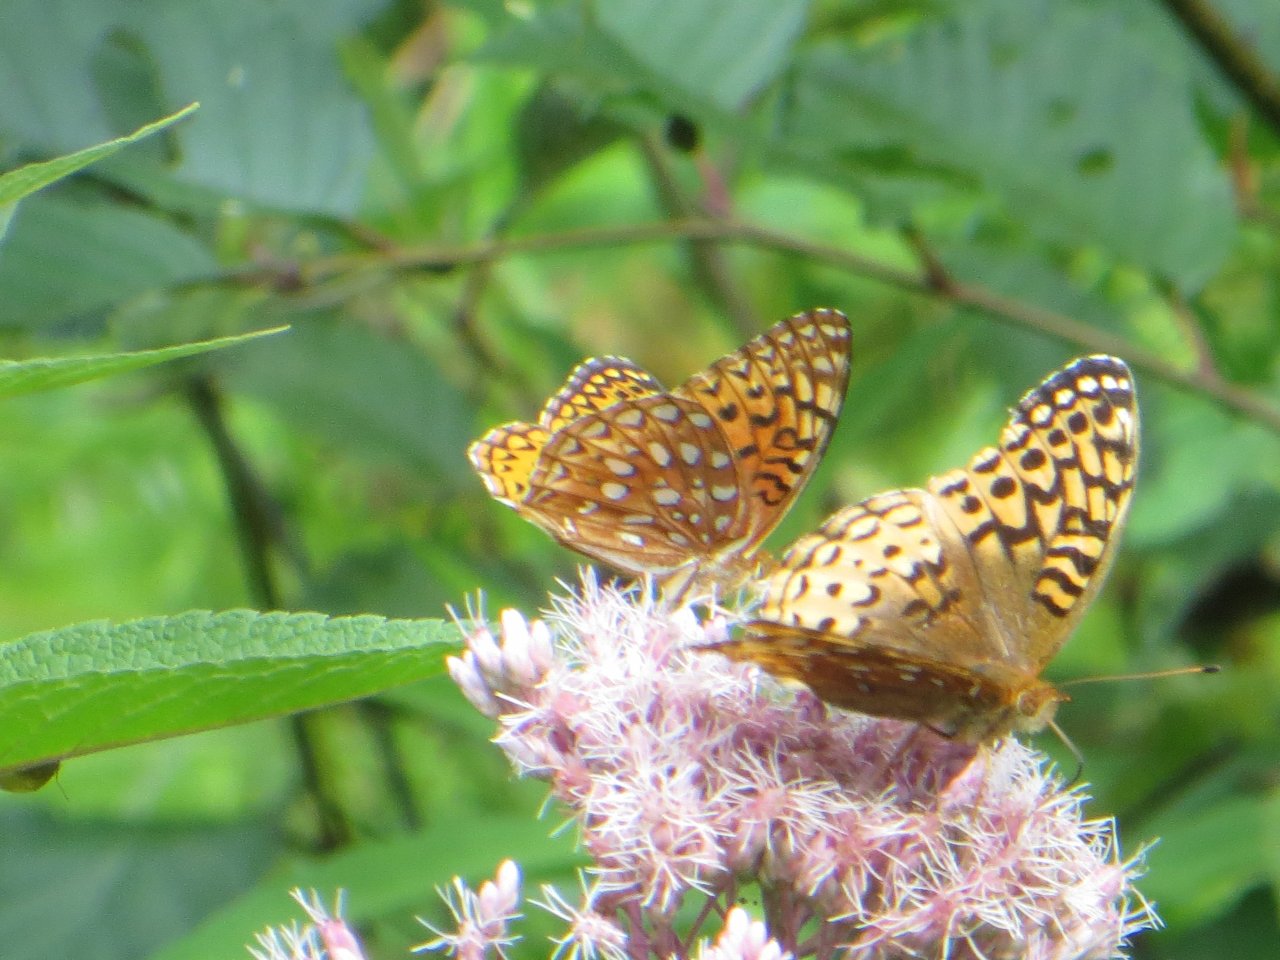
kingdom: Animalia
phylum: Arthropoda
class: Insecta
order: Lepidoptera
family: Nymphalidae
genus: Speyeria
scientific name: Speyeria aphrodite
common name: Aphrodite Fritillary
